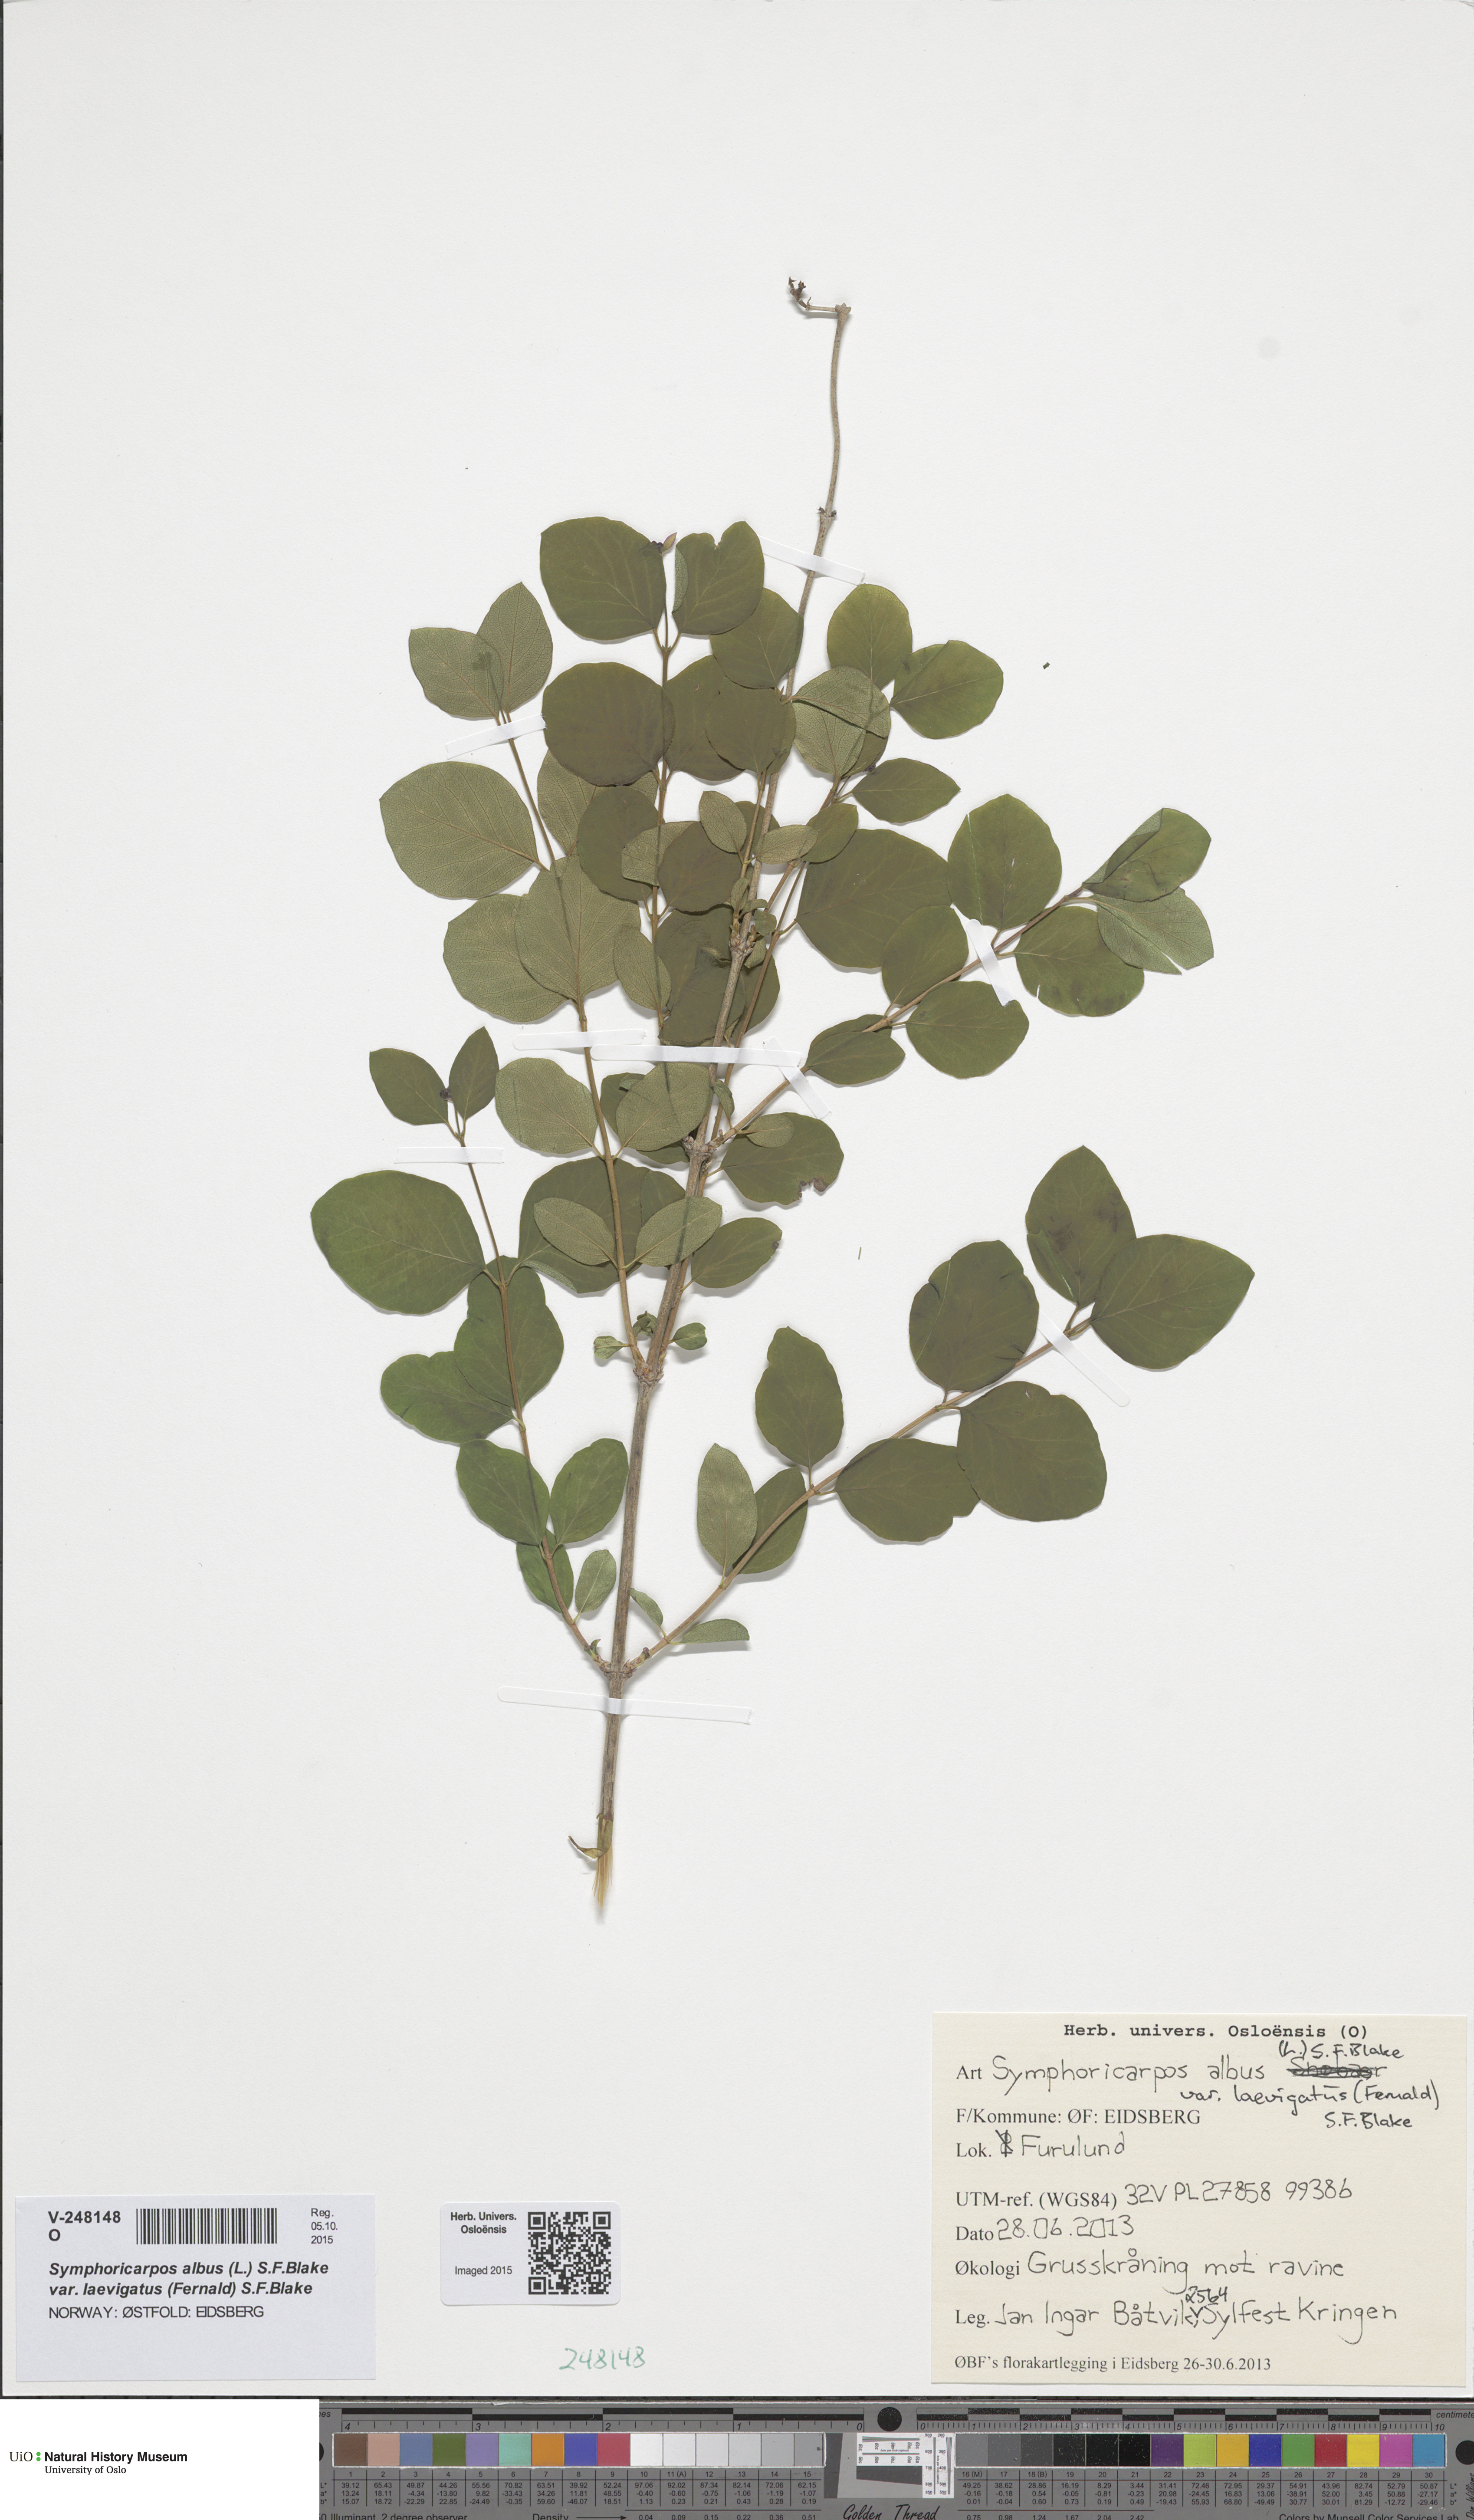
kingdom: Plantae
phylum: Tracheophyta
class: Magnoliopsida
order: Dipsacales
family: Caprifoliaceae
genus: Symphoricarpos
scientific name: Symphoricarpos albus
